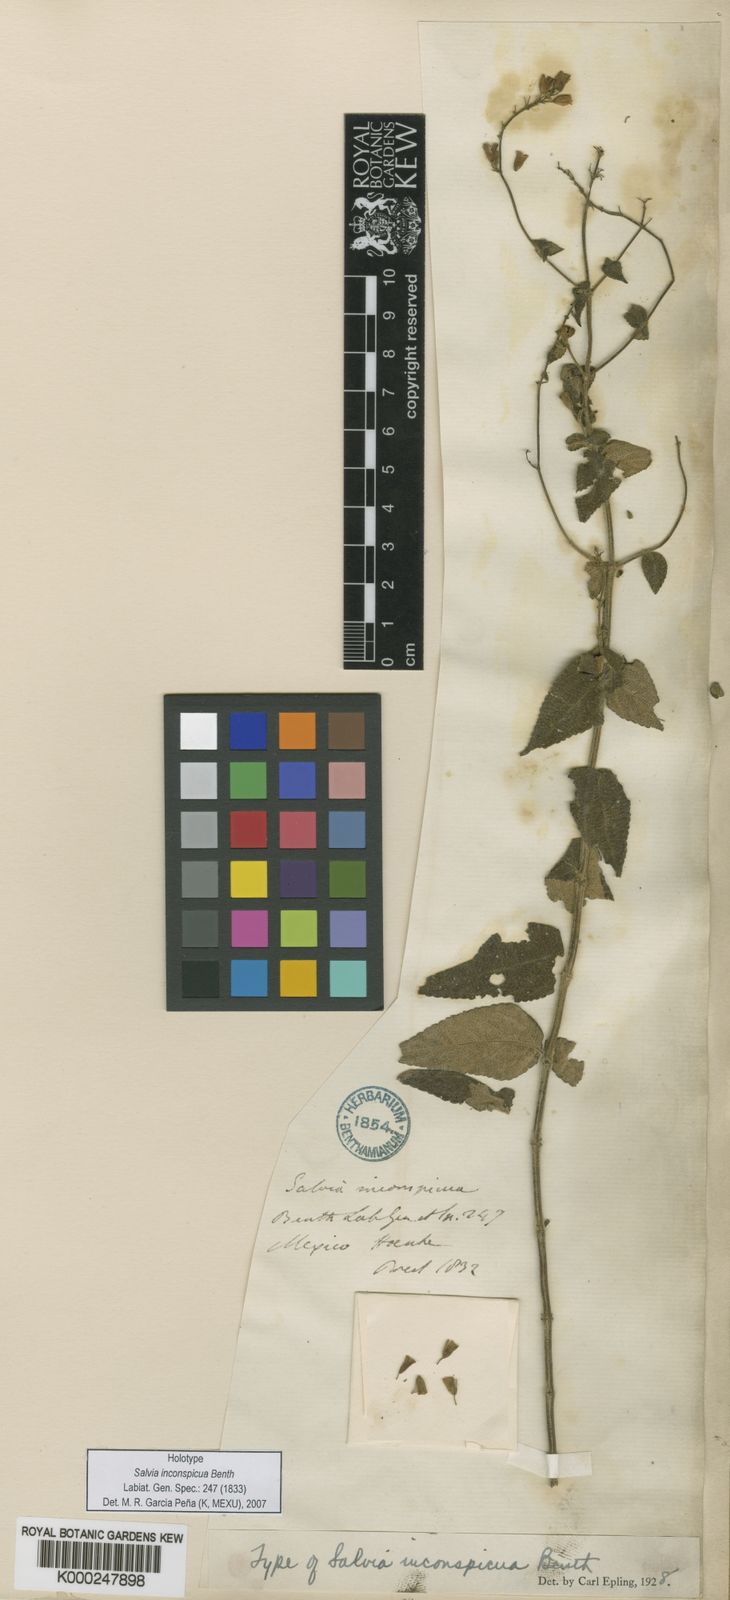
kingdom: Plantae
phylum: Tracheophyta
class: Magnoliopsida
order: Lamiales
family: Lamiaceae
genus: Salvia
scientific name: Salvia protracta
